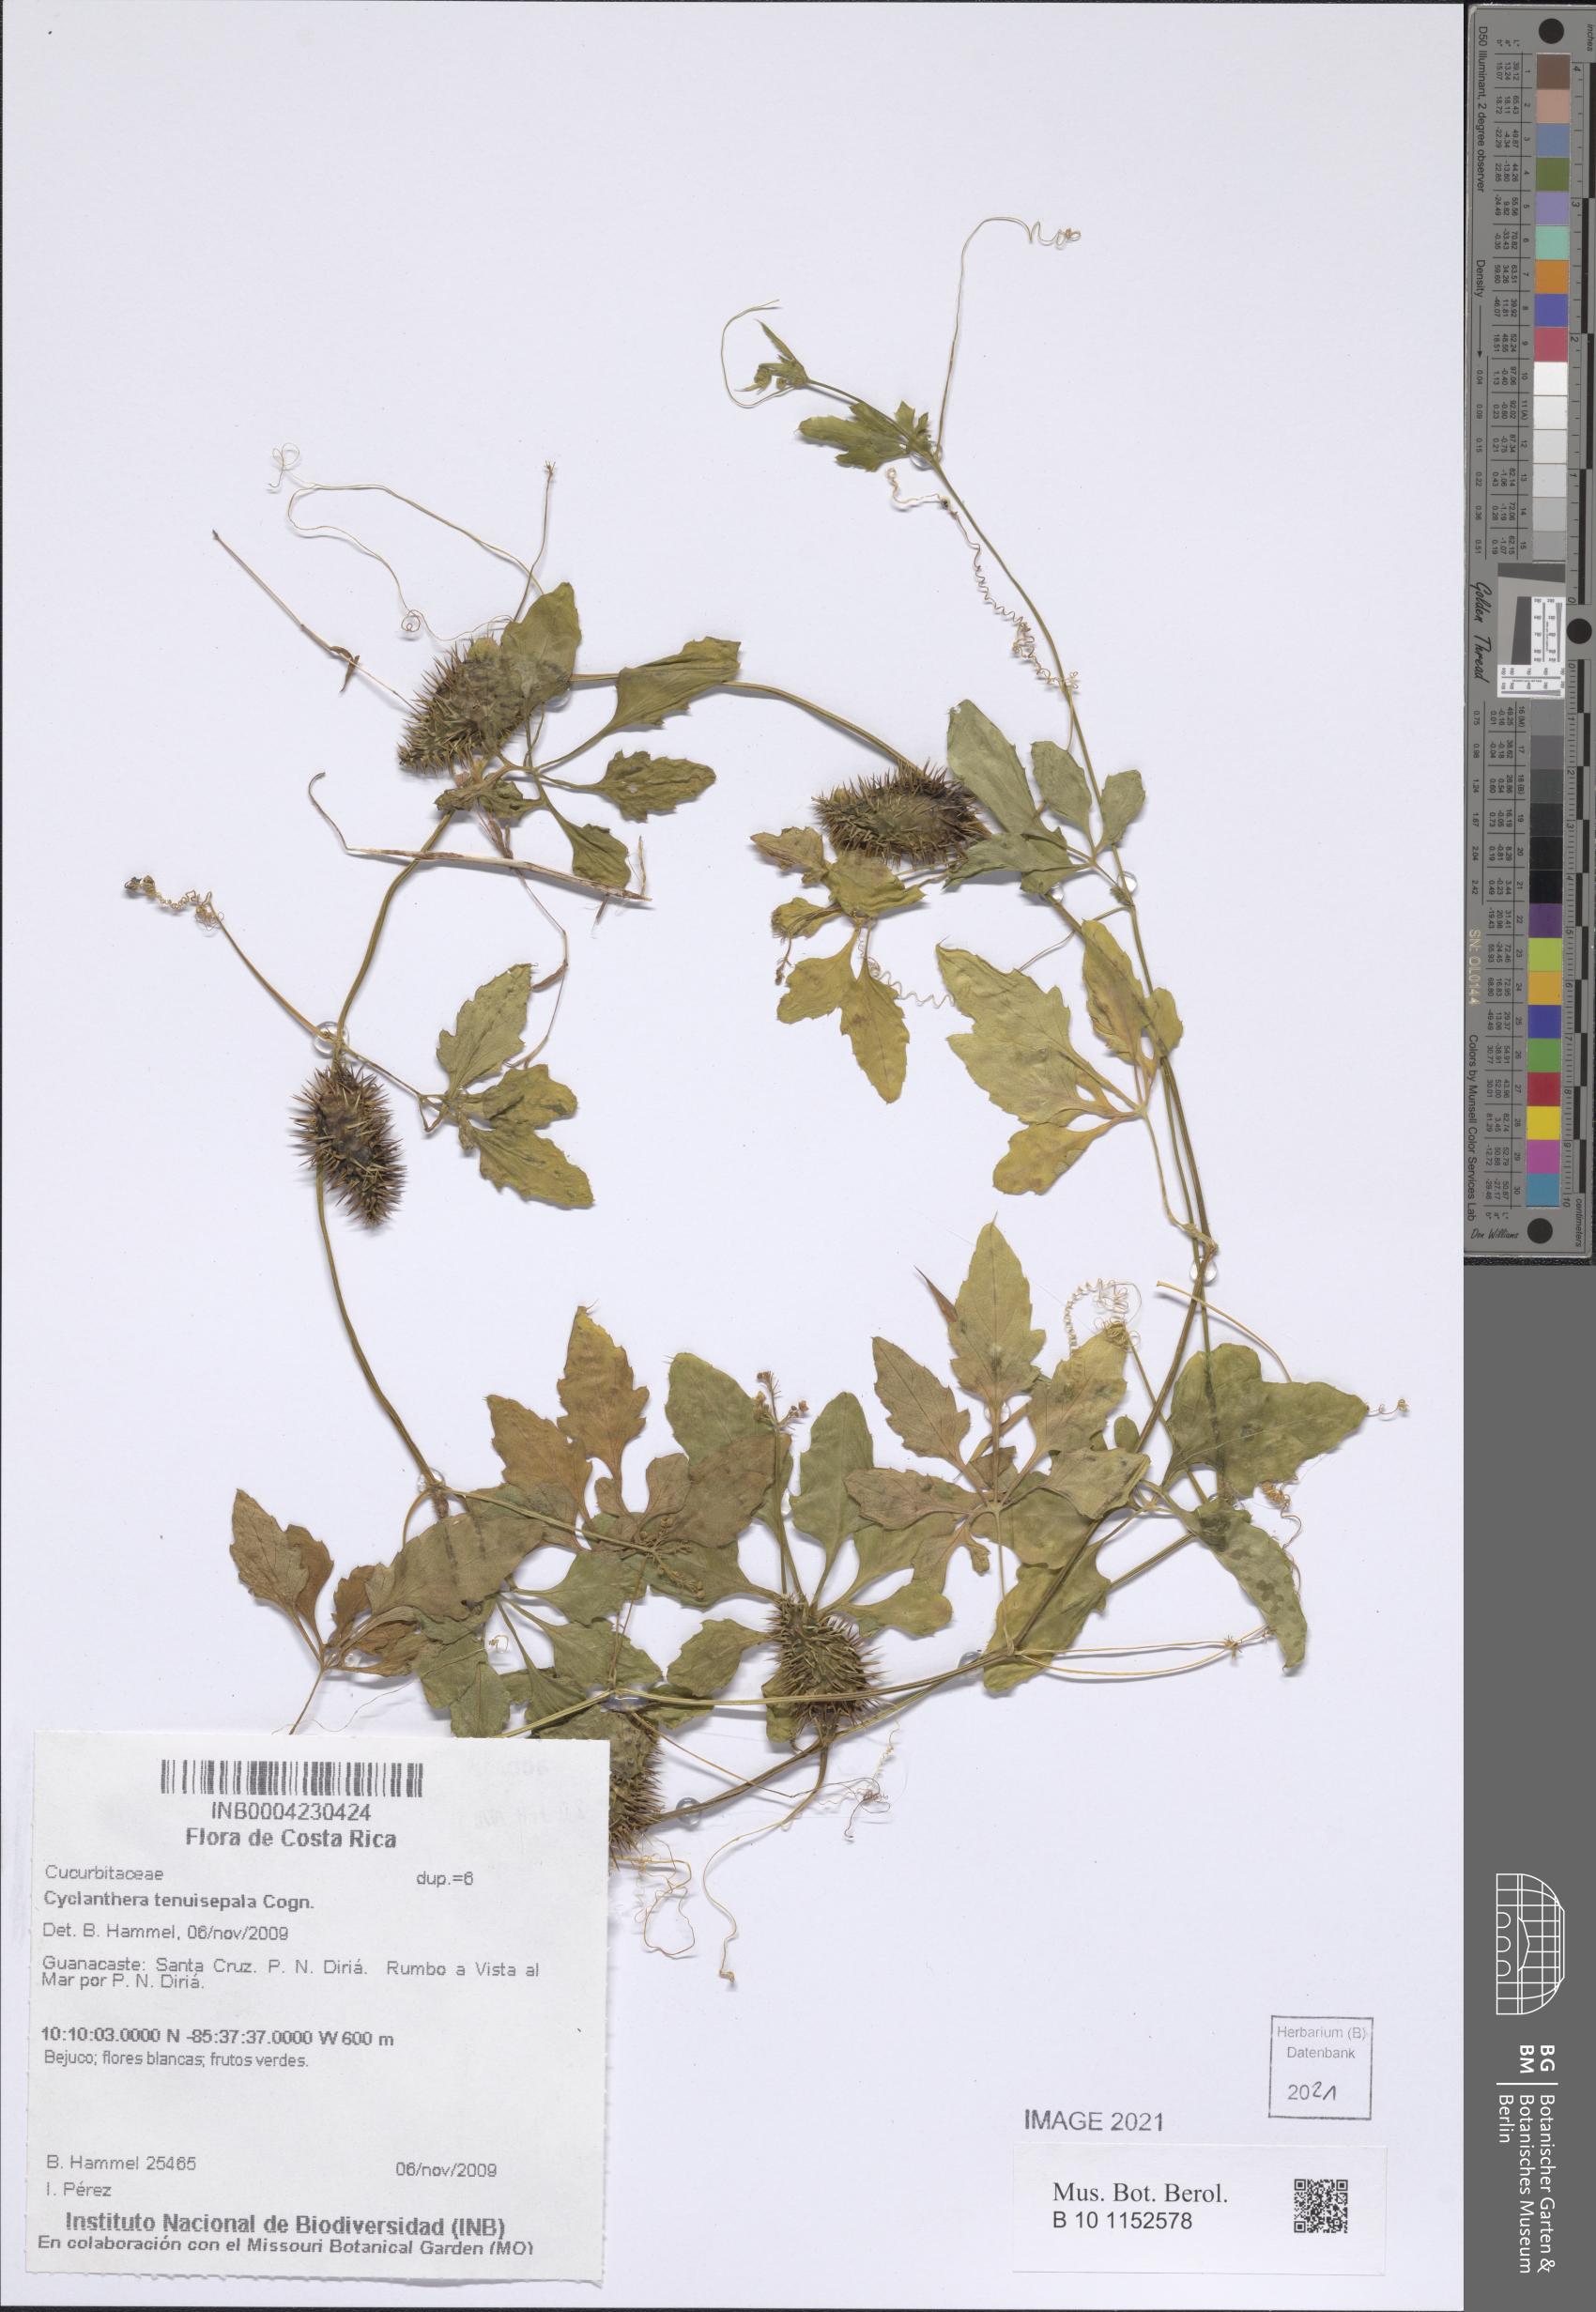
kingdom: Plantae
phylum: Tracheophyta
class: Magnoliopsida
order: Cucurbitales
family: Cucurbitaceae
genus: Cyclanthera
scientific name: Cyclanthera tenuisepala
